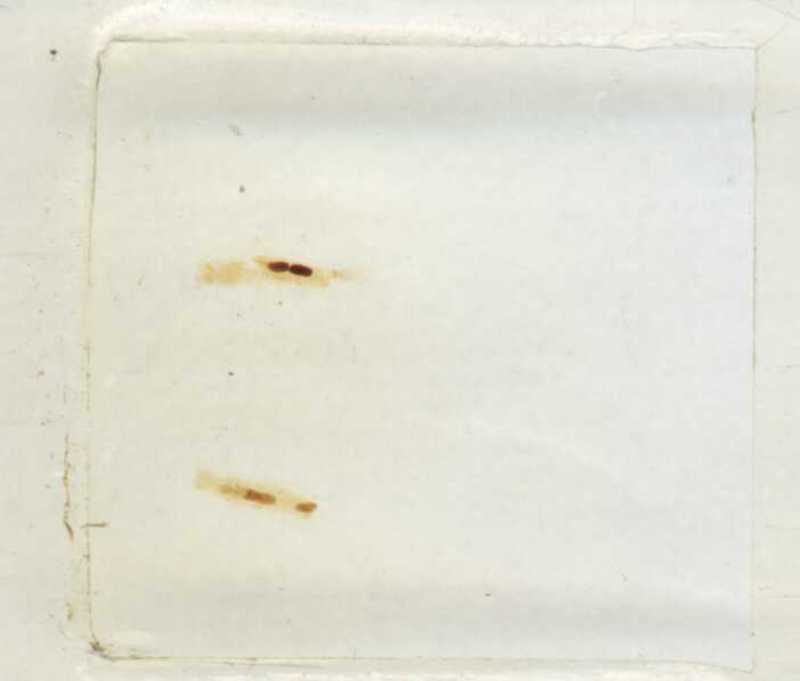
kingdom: Animalia
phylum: Arthropoda
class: Diplopoda
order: Polyxenida
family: Lophoproctidae
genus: Lophoproctus
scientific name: Lophoproctus jeanneli
